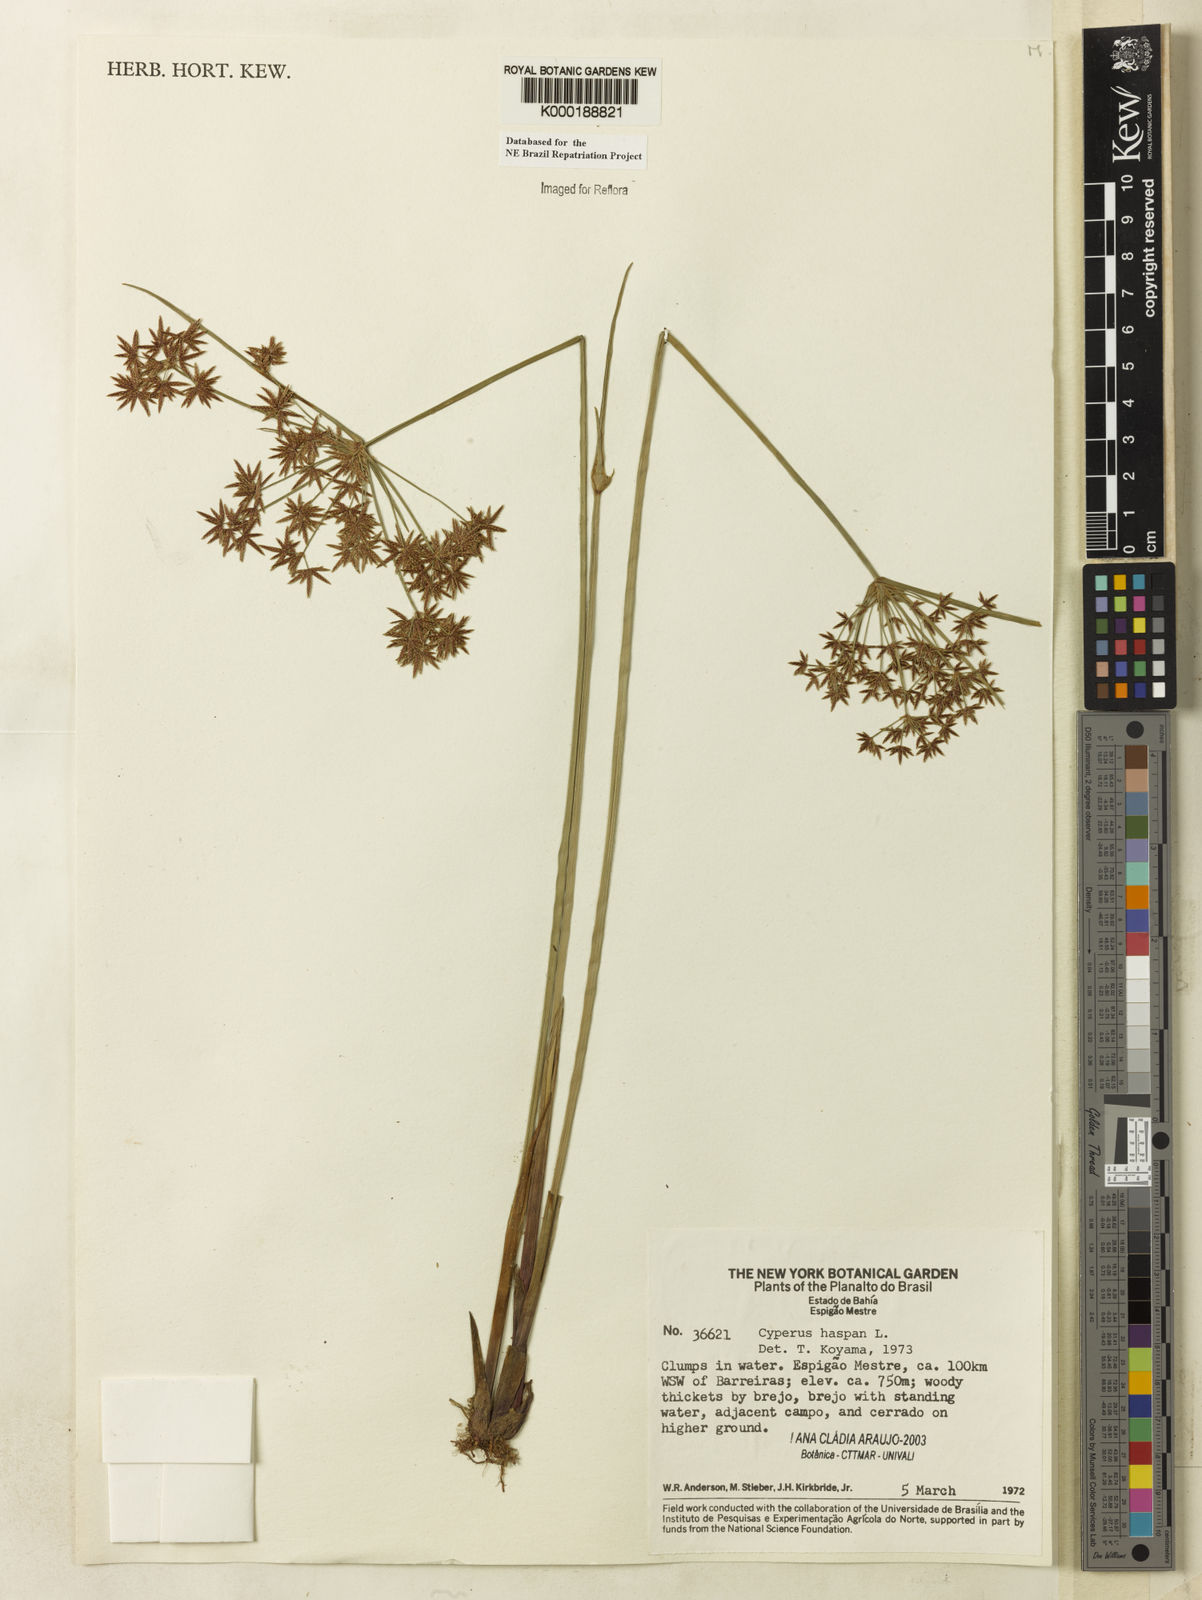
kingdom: Plantae
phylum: Tracheophyta
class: Liliopsida
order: Poales
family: Cyperaceae
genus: Cyperus
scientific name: Cyperus haspan
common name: Haspan flatsedge
